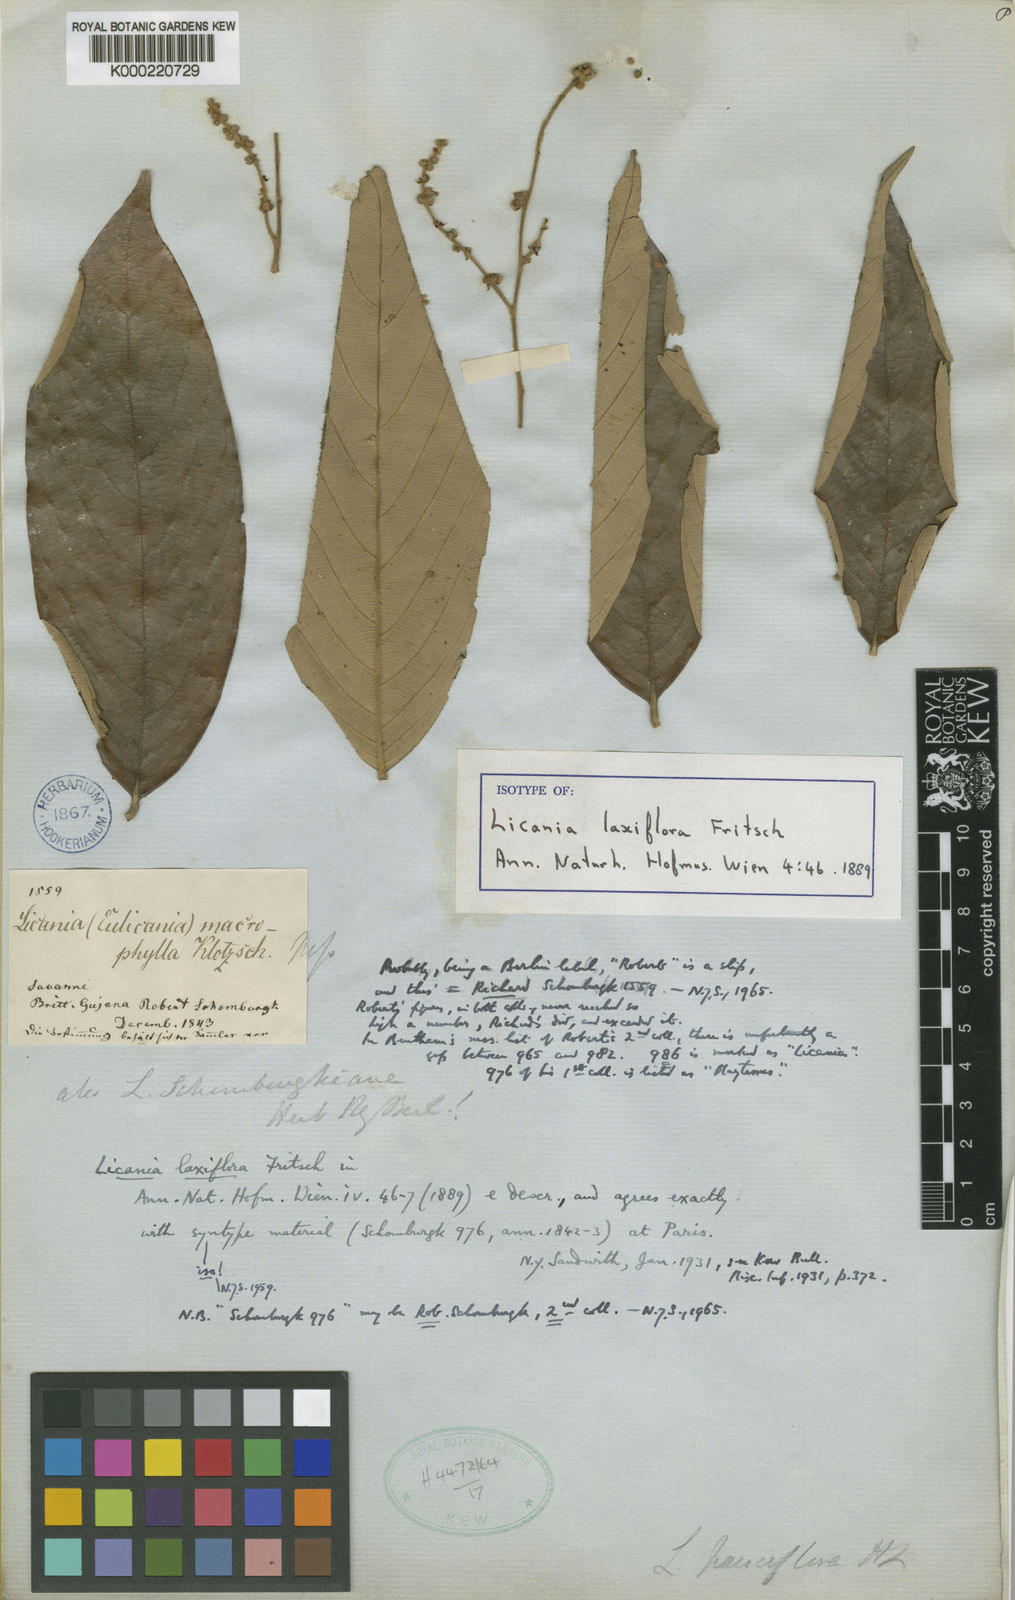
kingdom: Plantae
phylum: Tracheophyta
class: Magnoliopsida
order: Malpighiales
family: Chrysobalanaceae
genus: Licania
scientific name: Licania laxiflora
